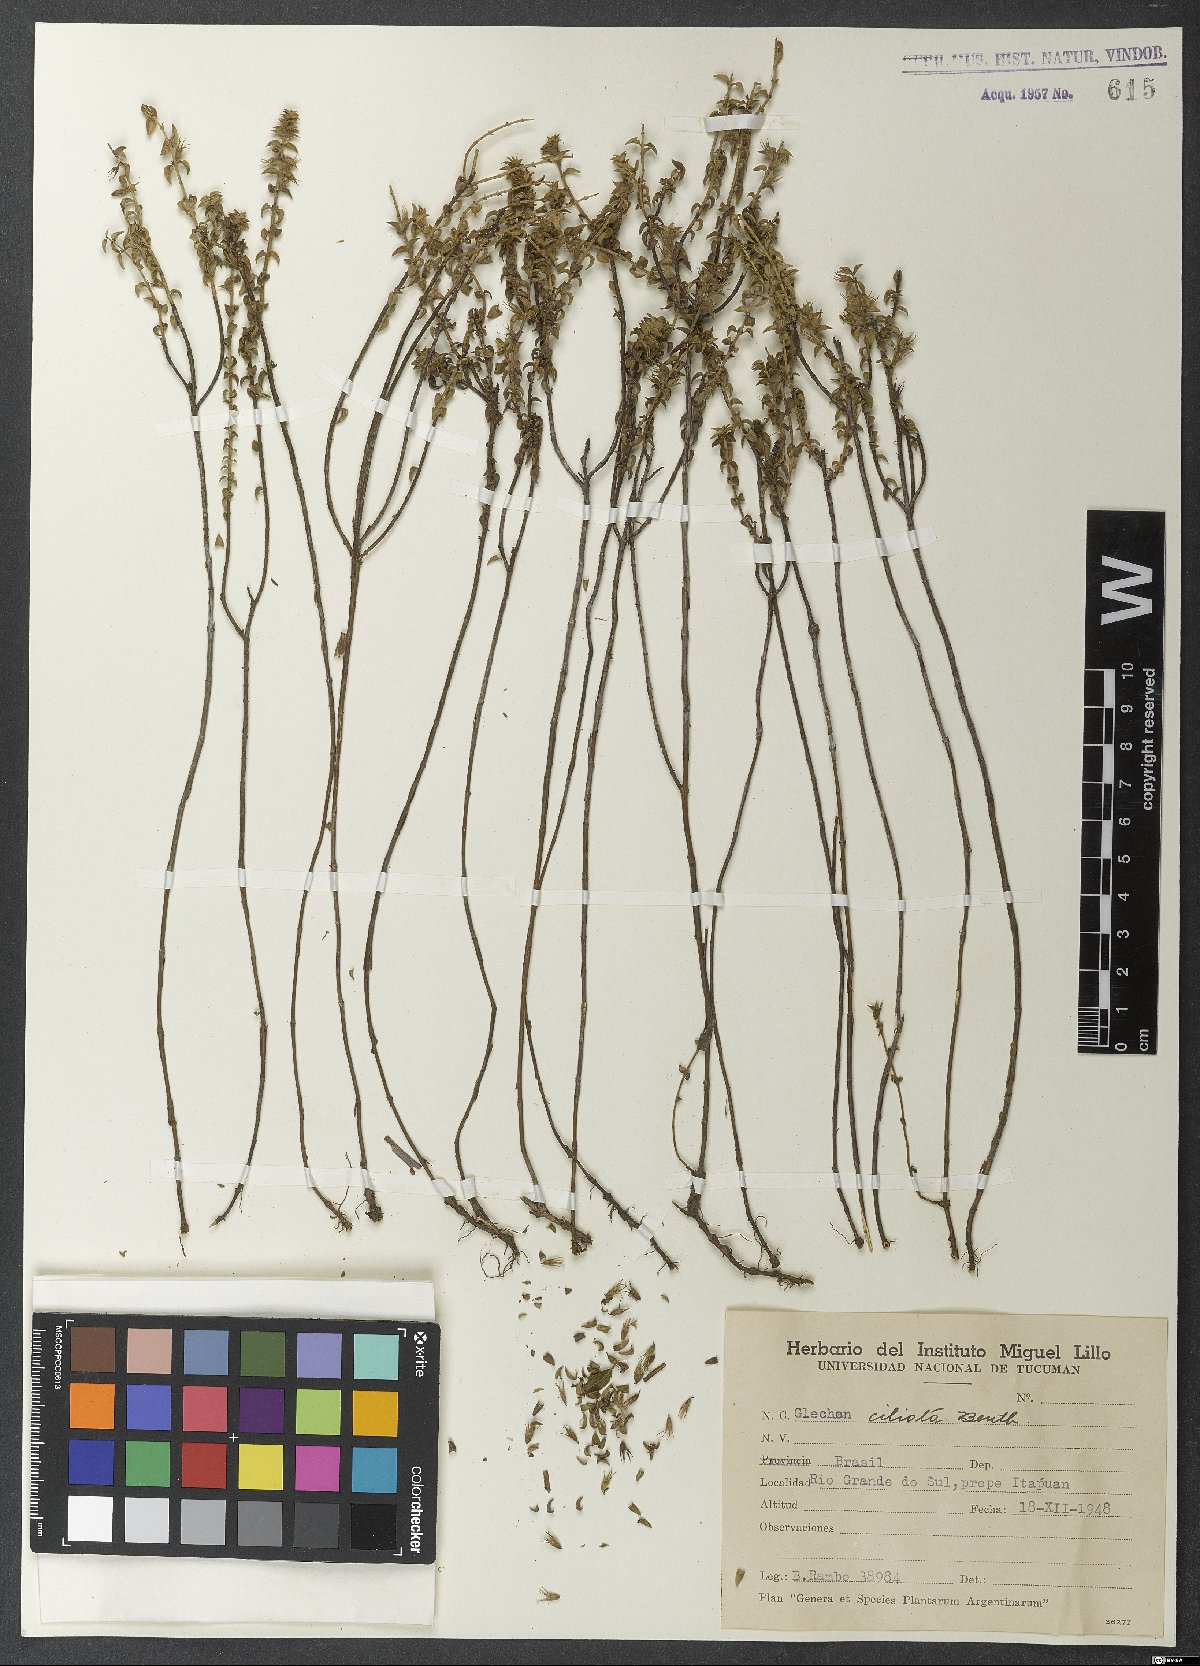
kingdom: Plantae
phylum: Tracheophyta
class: Magnoliopsida
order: Lamiales
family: Lamiaceae
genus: Glechon
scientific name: Glechon ciliata
